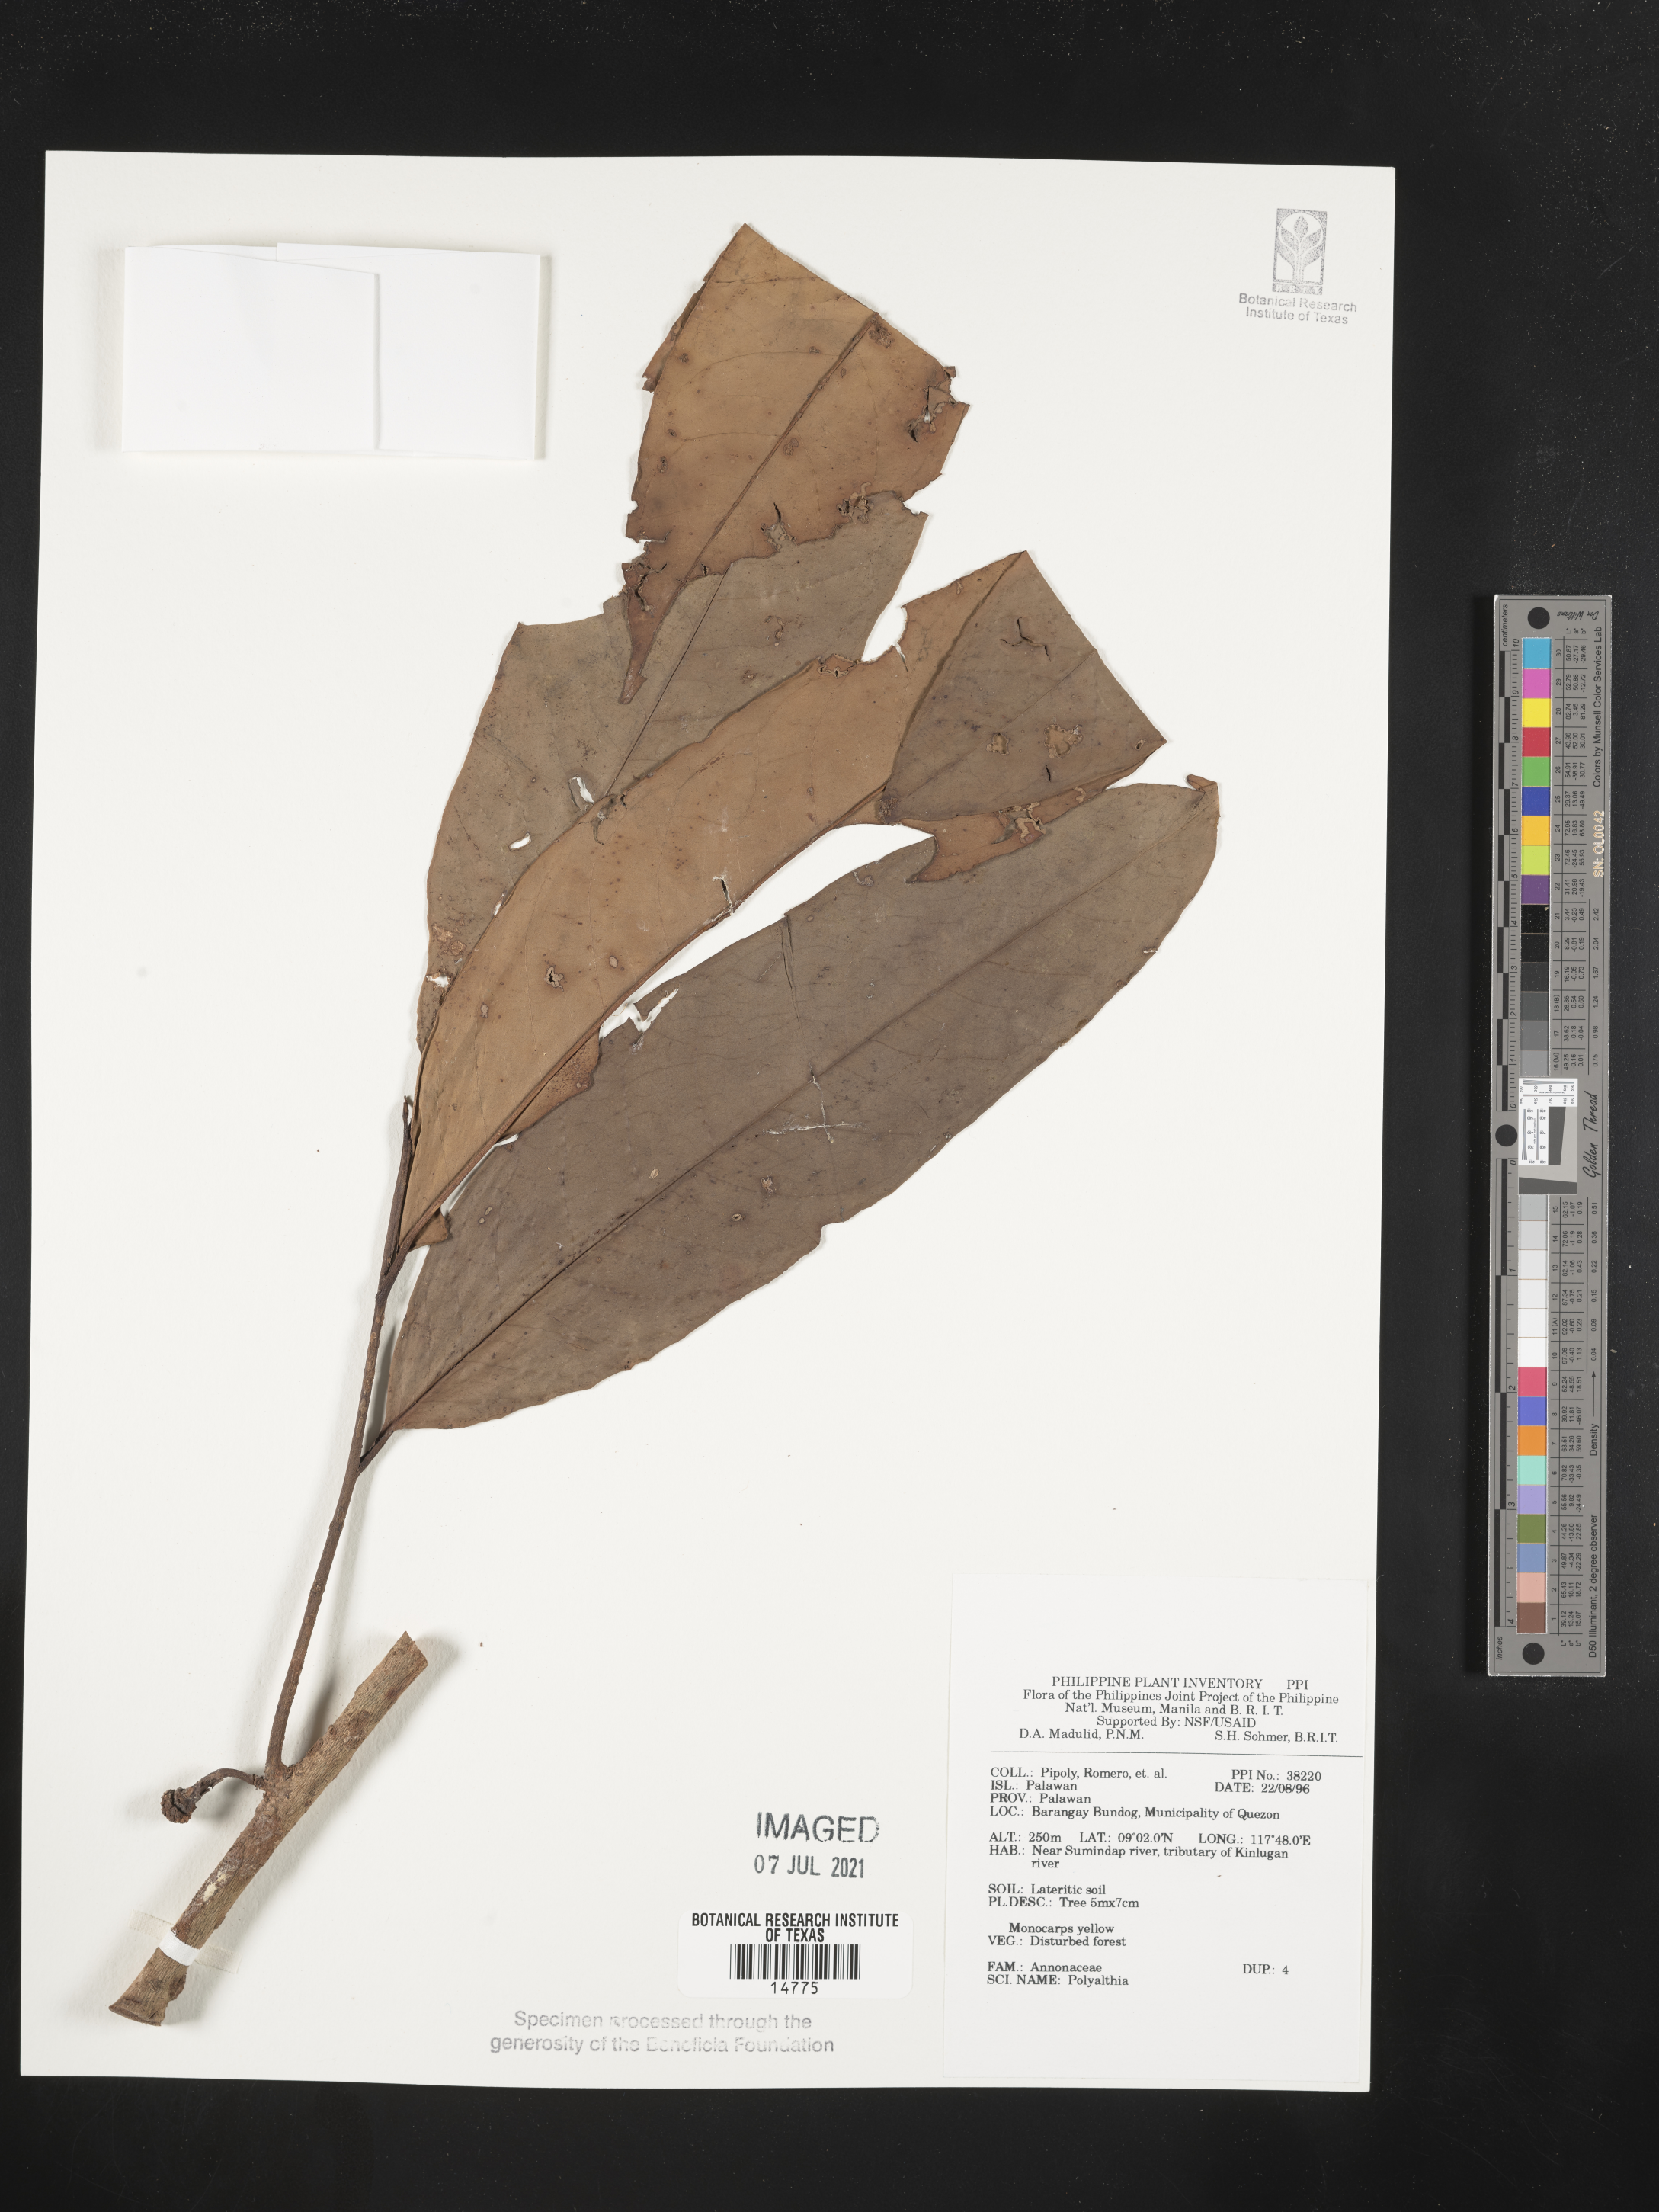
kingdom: Plantae
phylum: Tracheophyta
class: Magnoliopsida
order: Magnoliales
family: Annonaceae
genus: Polyalthia
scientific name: Polyalthia
